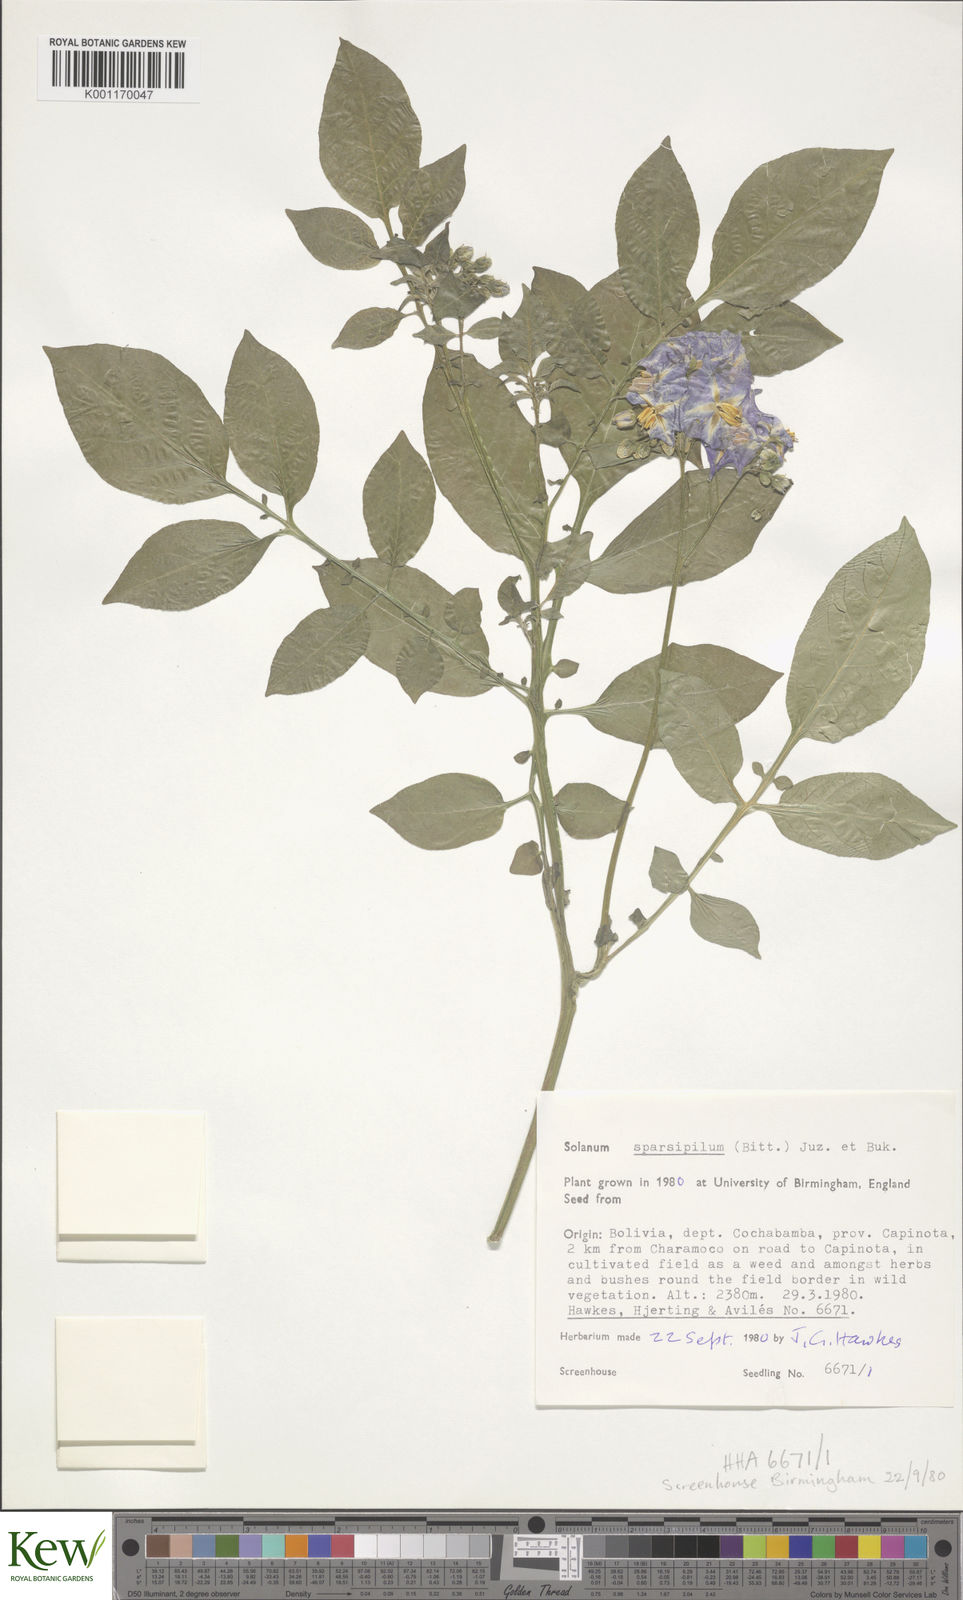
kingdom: Plantae
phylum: Tracheophyta
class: Magnoliopsida
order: Solanales
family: Solanaceae
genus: Solanum
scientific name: Solanum brevicaule
